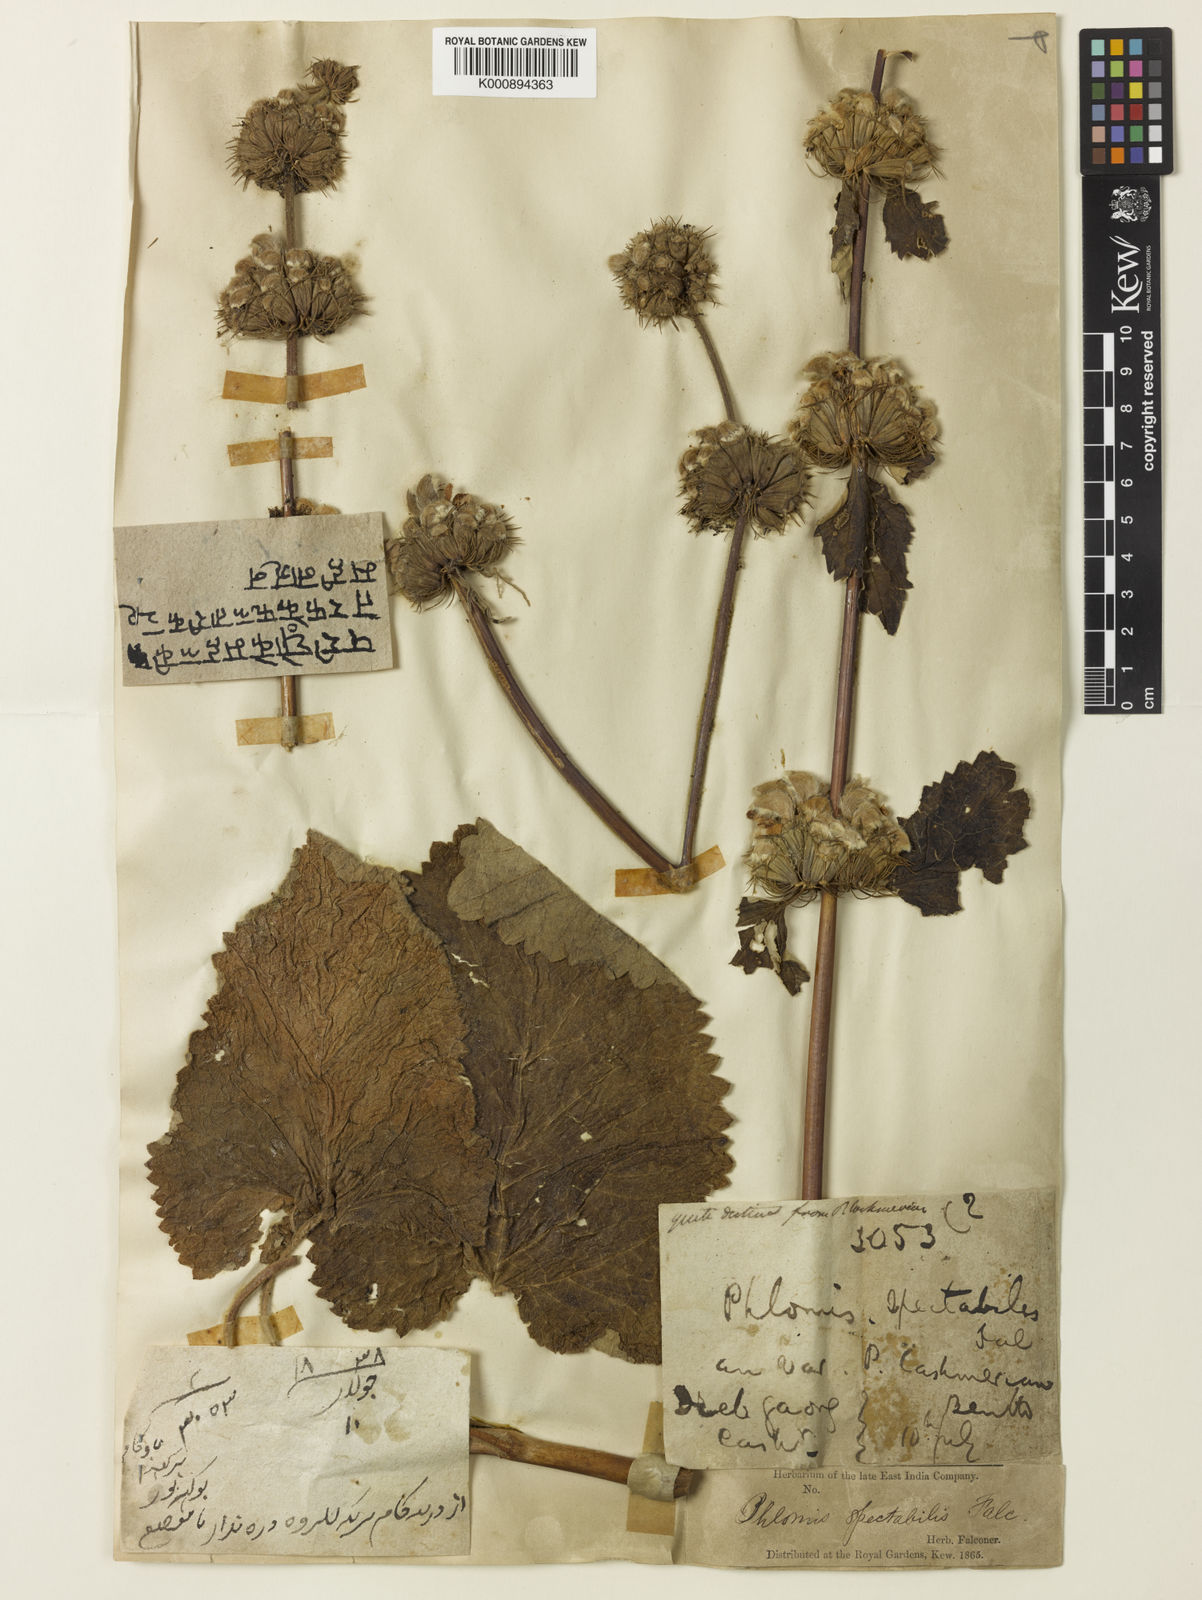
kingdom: Plantae
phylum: Tracheophyta
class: Magnoliopsida
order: Lamiales
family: Lamiaceae
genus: Phlomoides
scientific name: Phlomoides spectabilis
